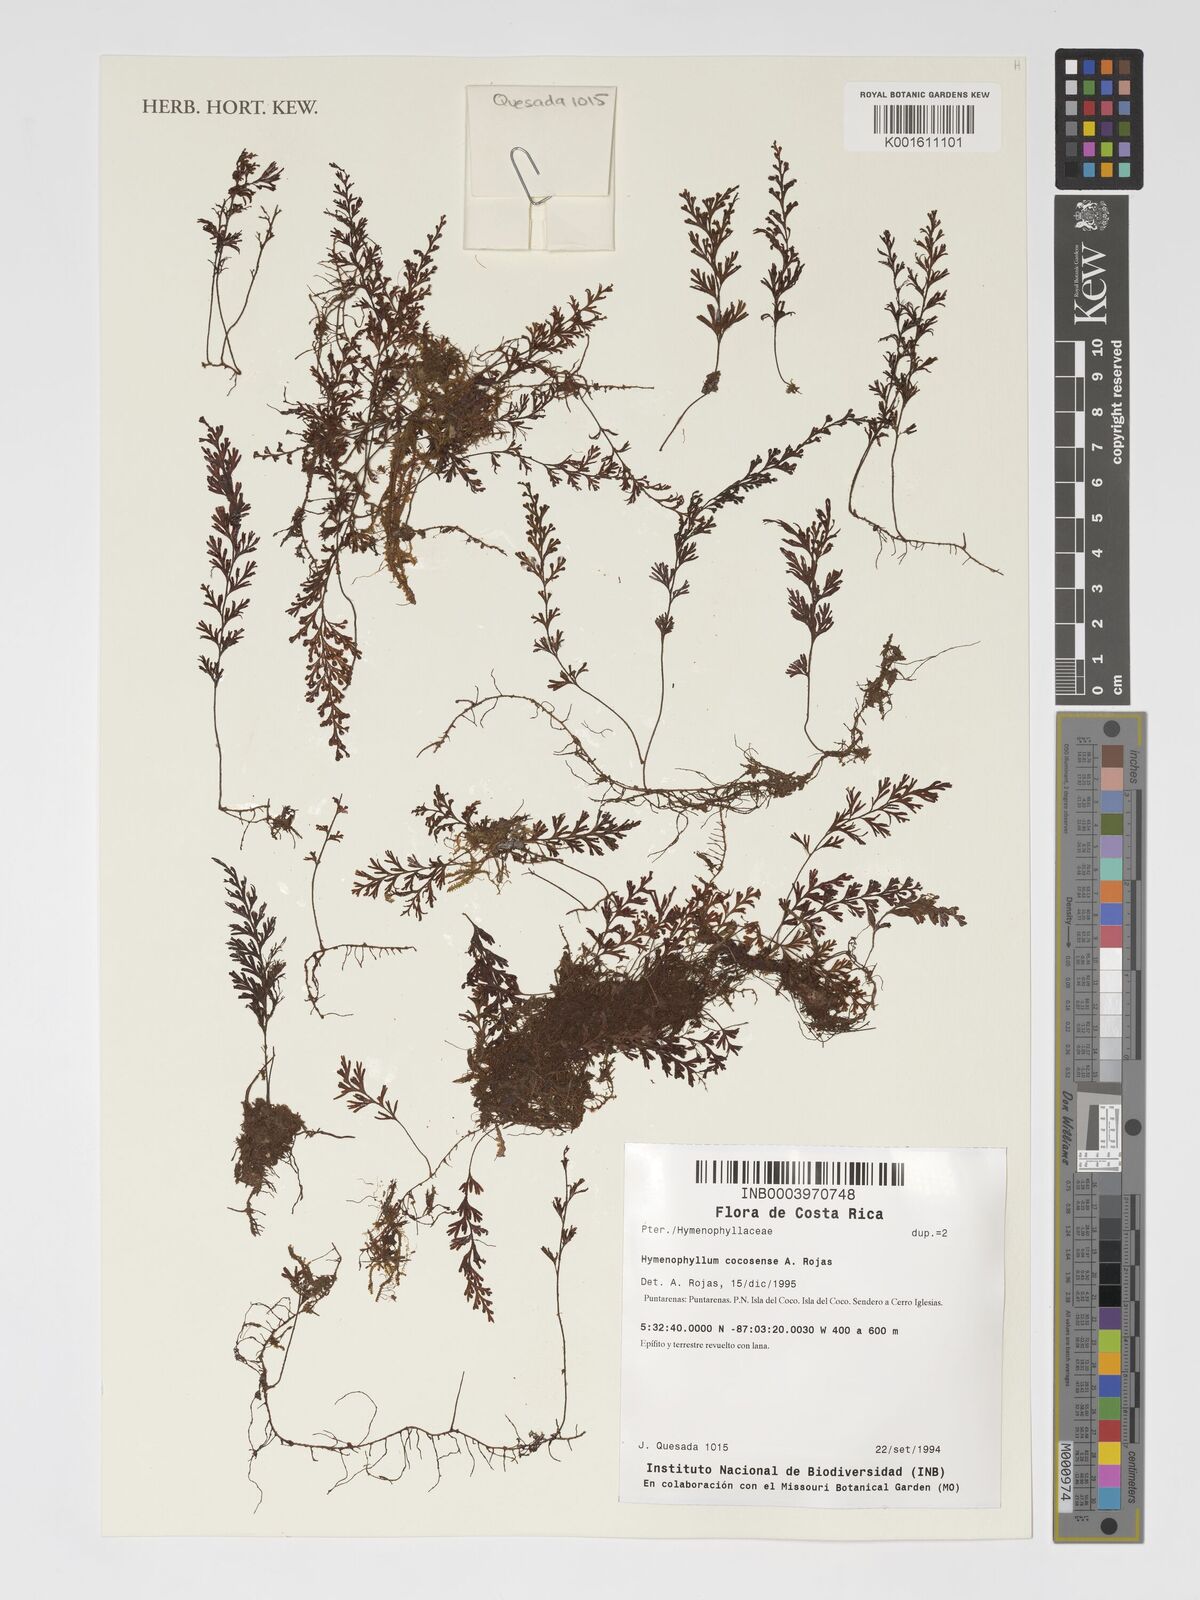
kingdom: Plantae
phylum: Tracheophyta
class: Polypodiopsida
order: Hymenophyllales
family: Hymenophyllaceae
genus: Hymenophyllum
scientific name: Hymenophyllum cocosense
